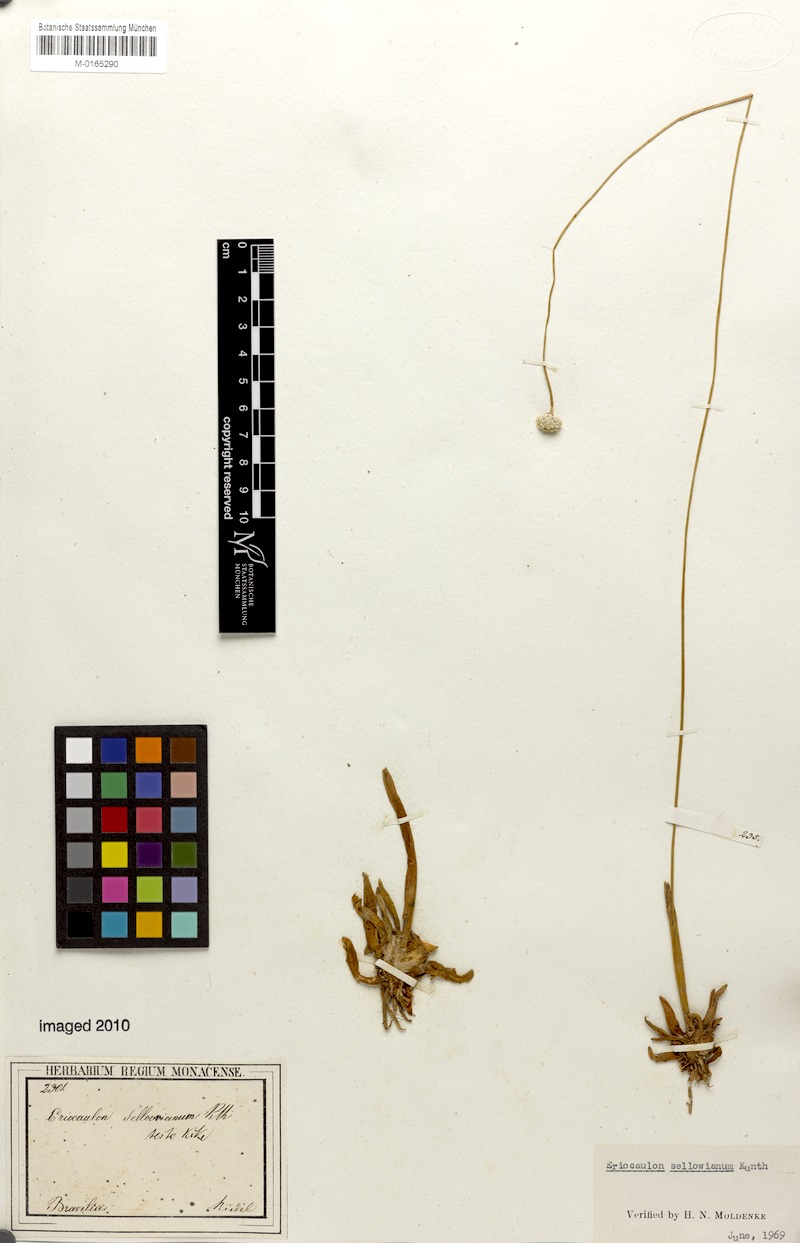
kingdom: Plantae
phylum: Tracheophyta
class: Liliopsida
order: Poales
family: Eriocaulaceae
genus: Eriocaulon
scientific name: Eriocaulon sellowianum
